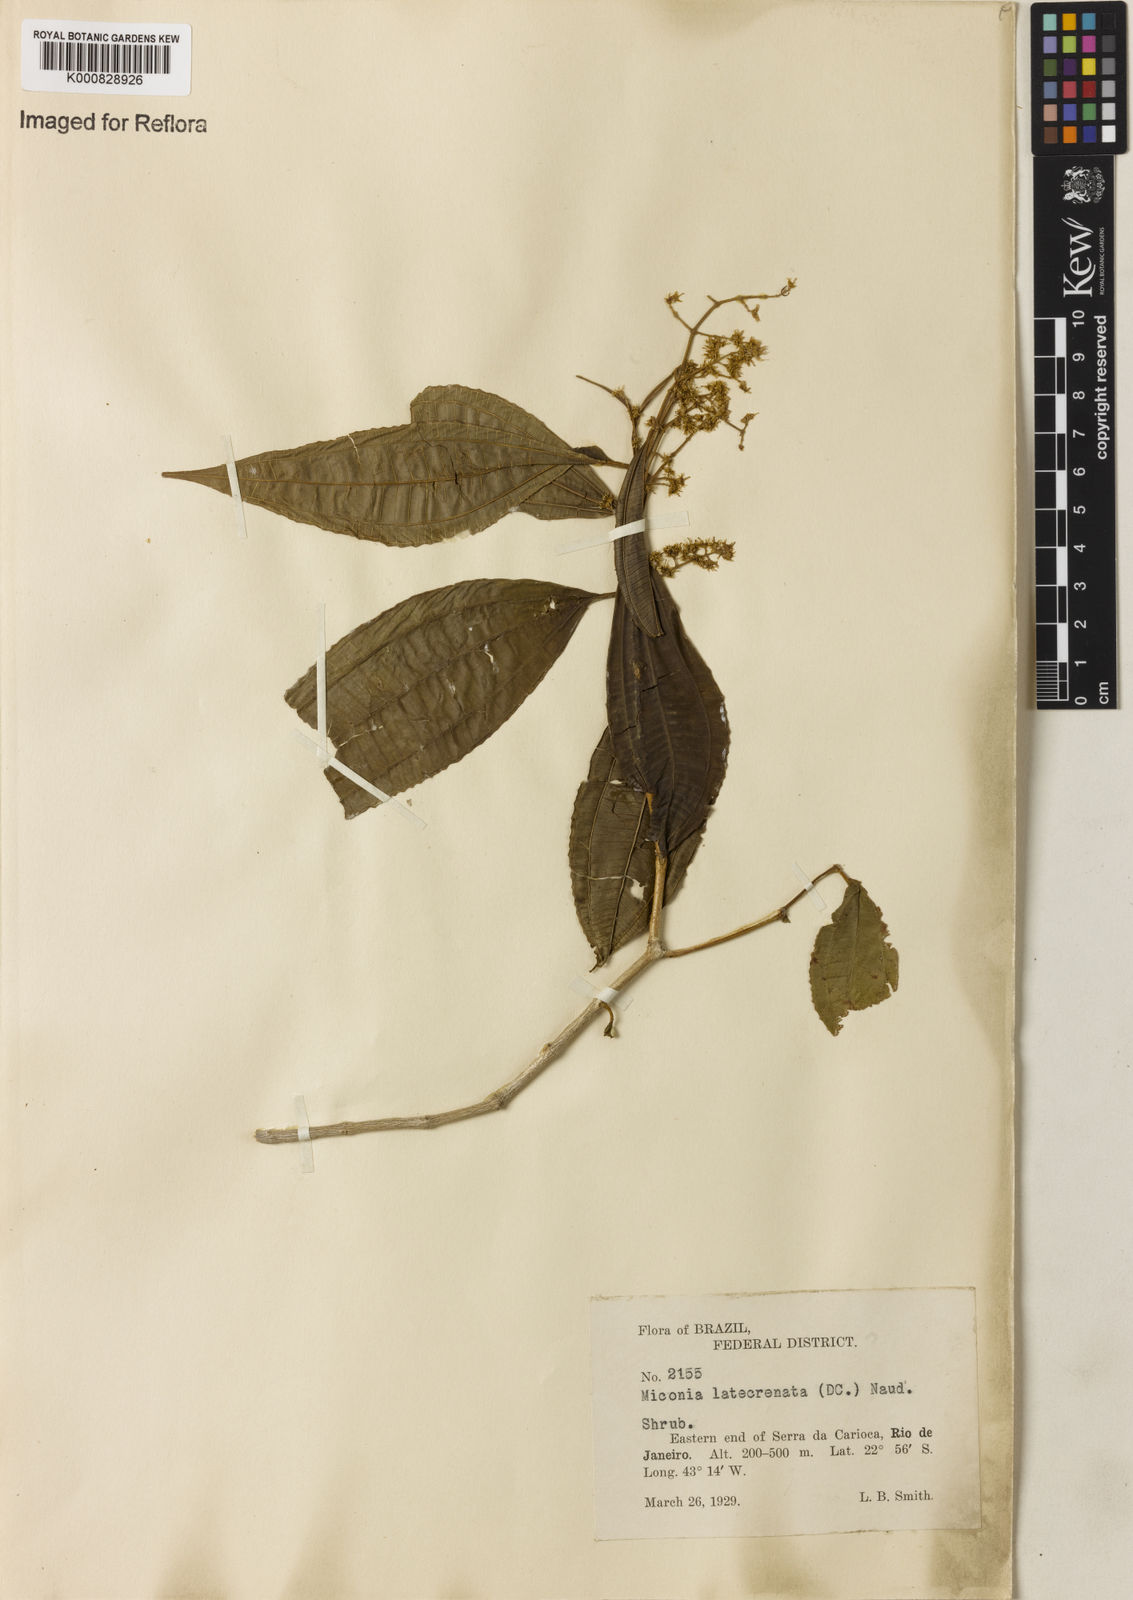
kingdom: Plantae
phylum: Tracheophyta
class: Magnoliopsida
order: Myrtales
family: Melastomataceae
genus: Miconia
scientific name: Miconia latecrenata
